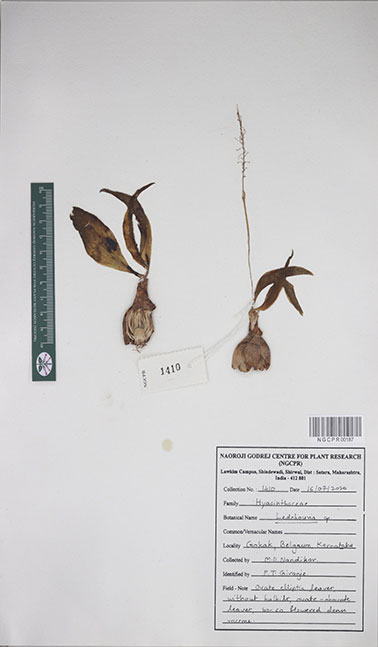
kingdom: Plantae
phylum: Tracheophyta
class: Liliopsida
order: Asparagales
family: Asparagaceae
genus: Ledebouria
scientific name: Ledebouria
